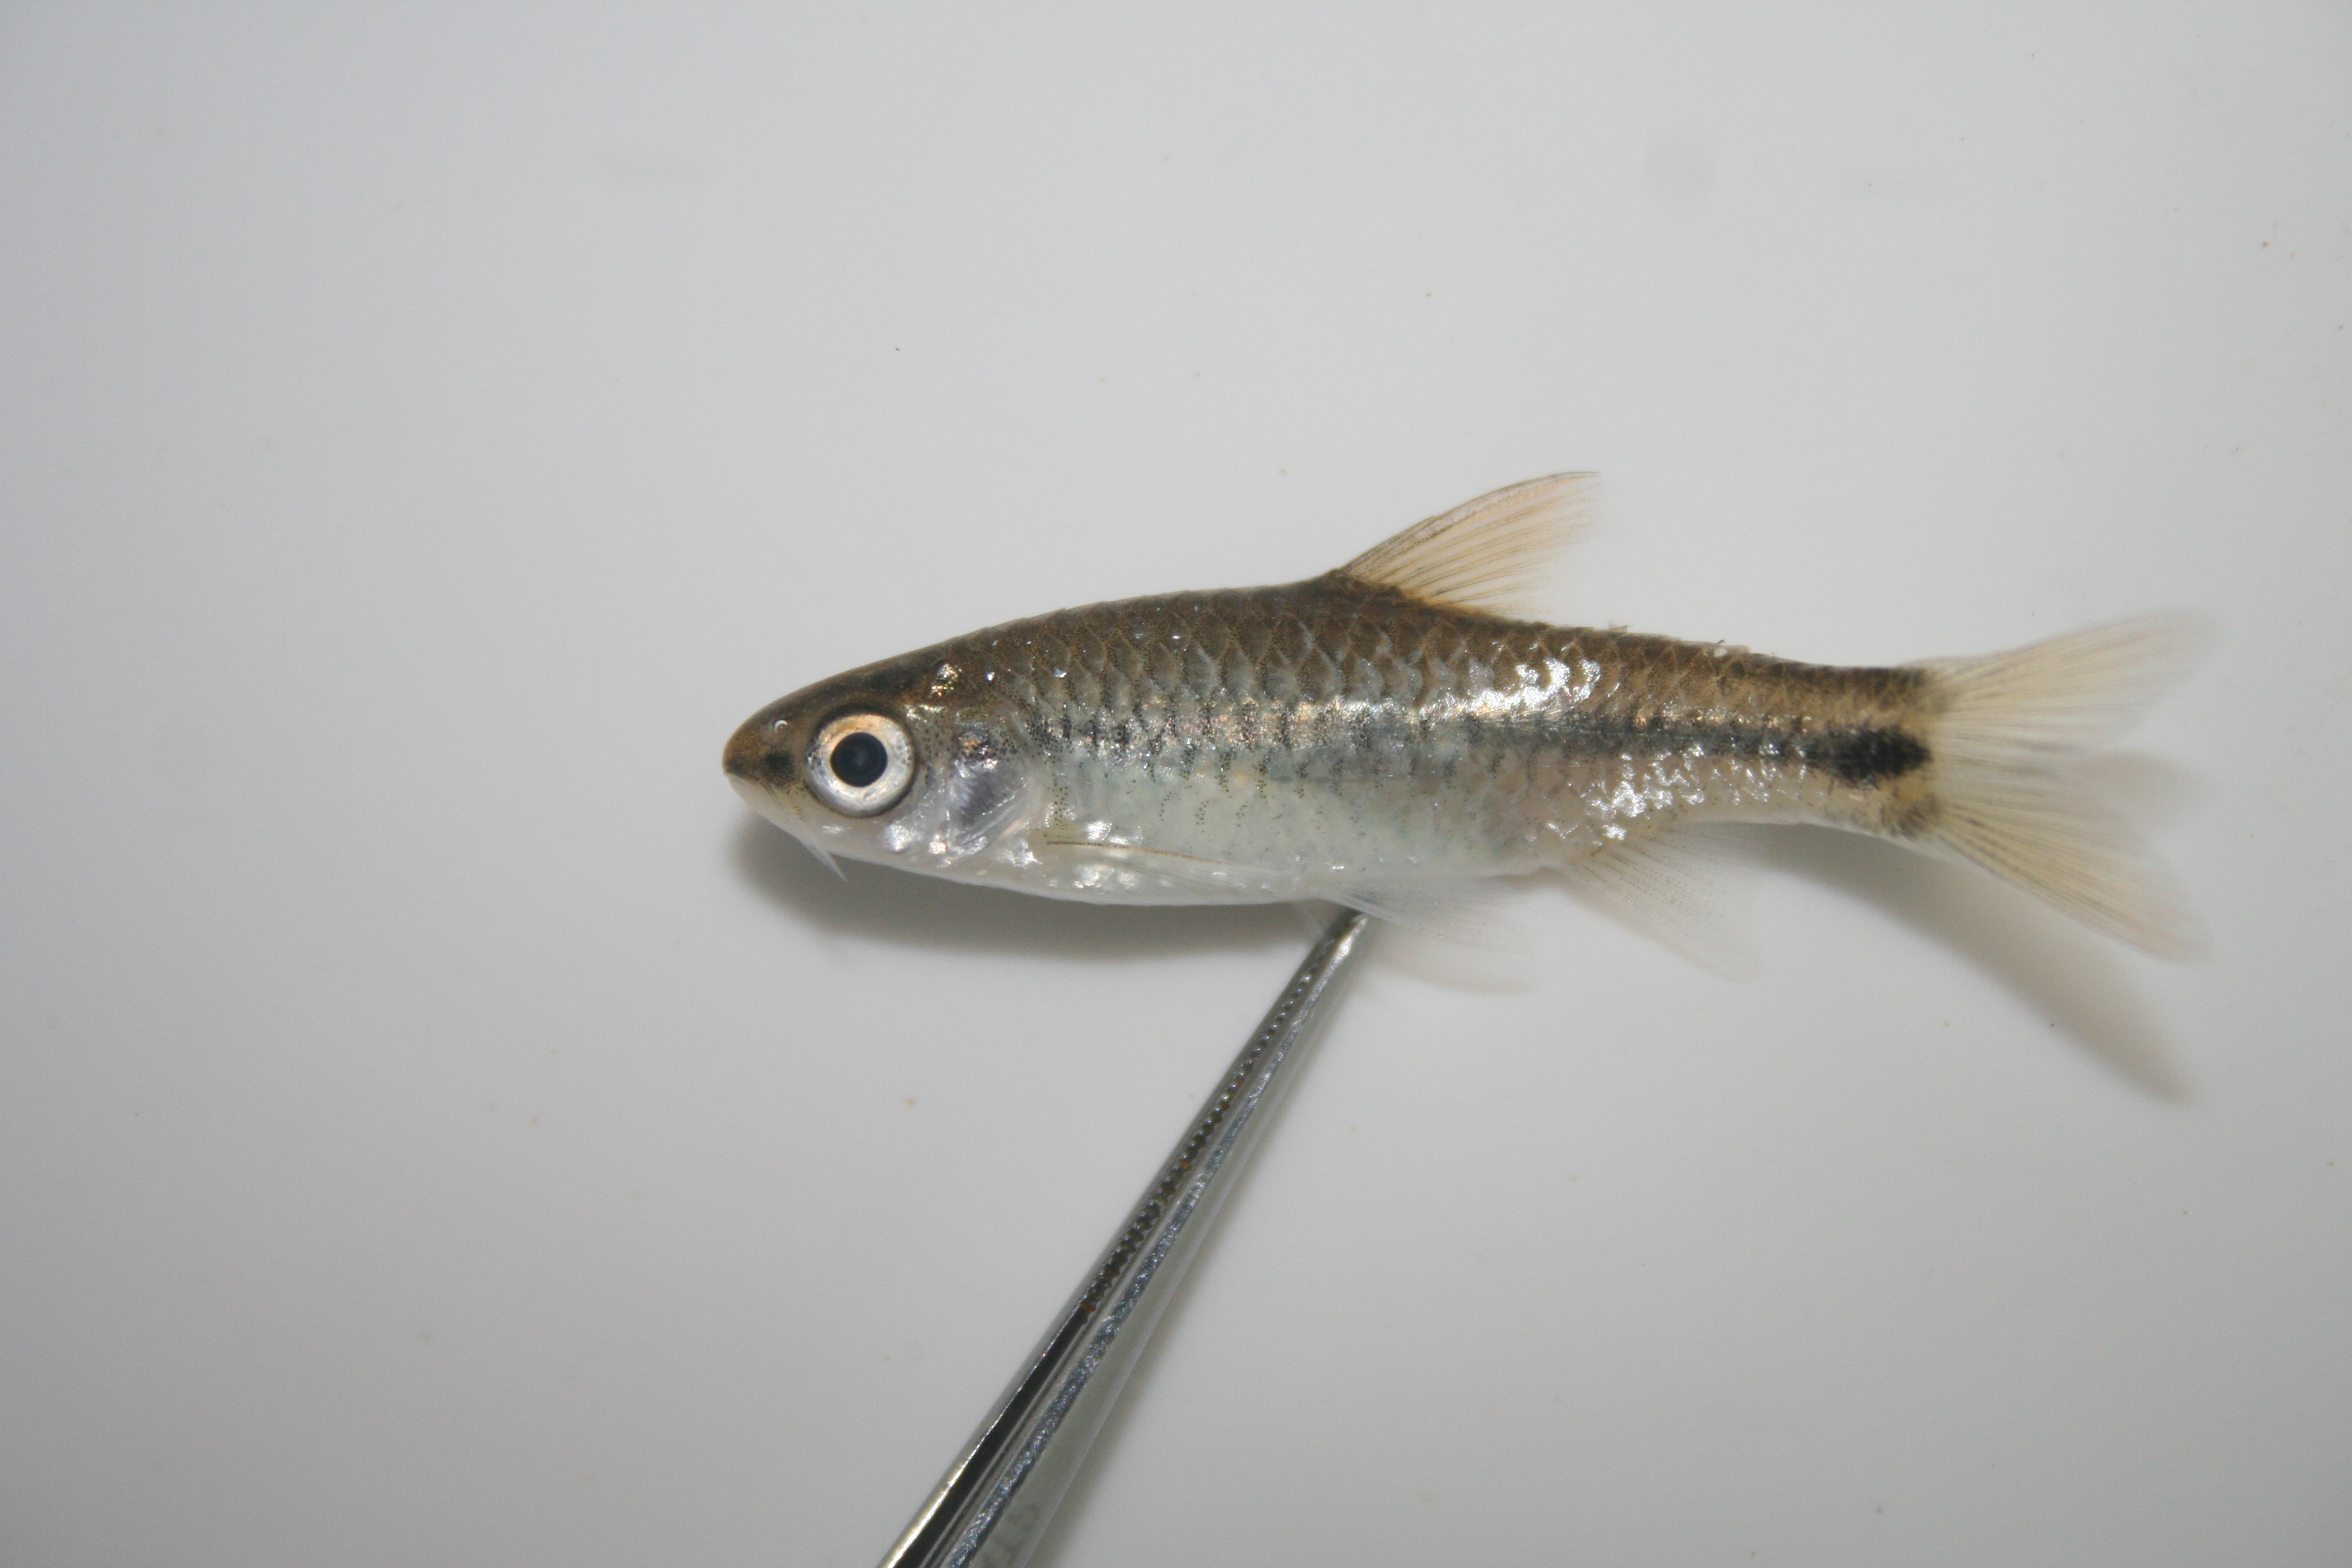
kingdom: Animalia
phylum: Chordata
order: Cypriniformes
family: Cyprinidae
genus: Enteromius
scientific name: Enteromius thamalakanensis
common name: Thamalakane barb
